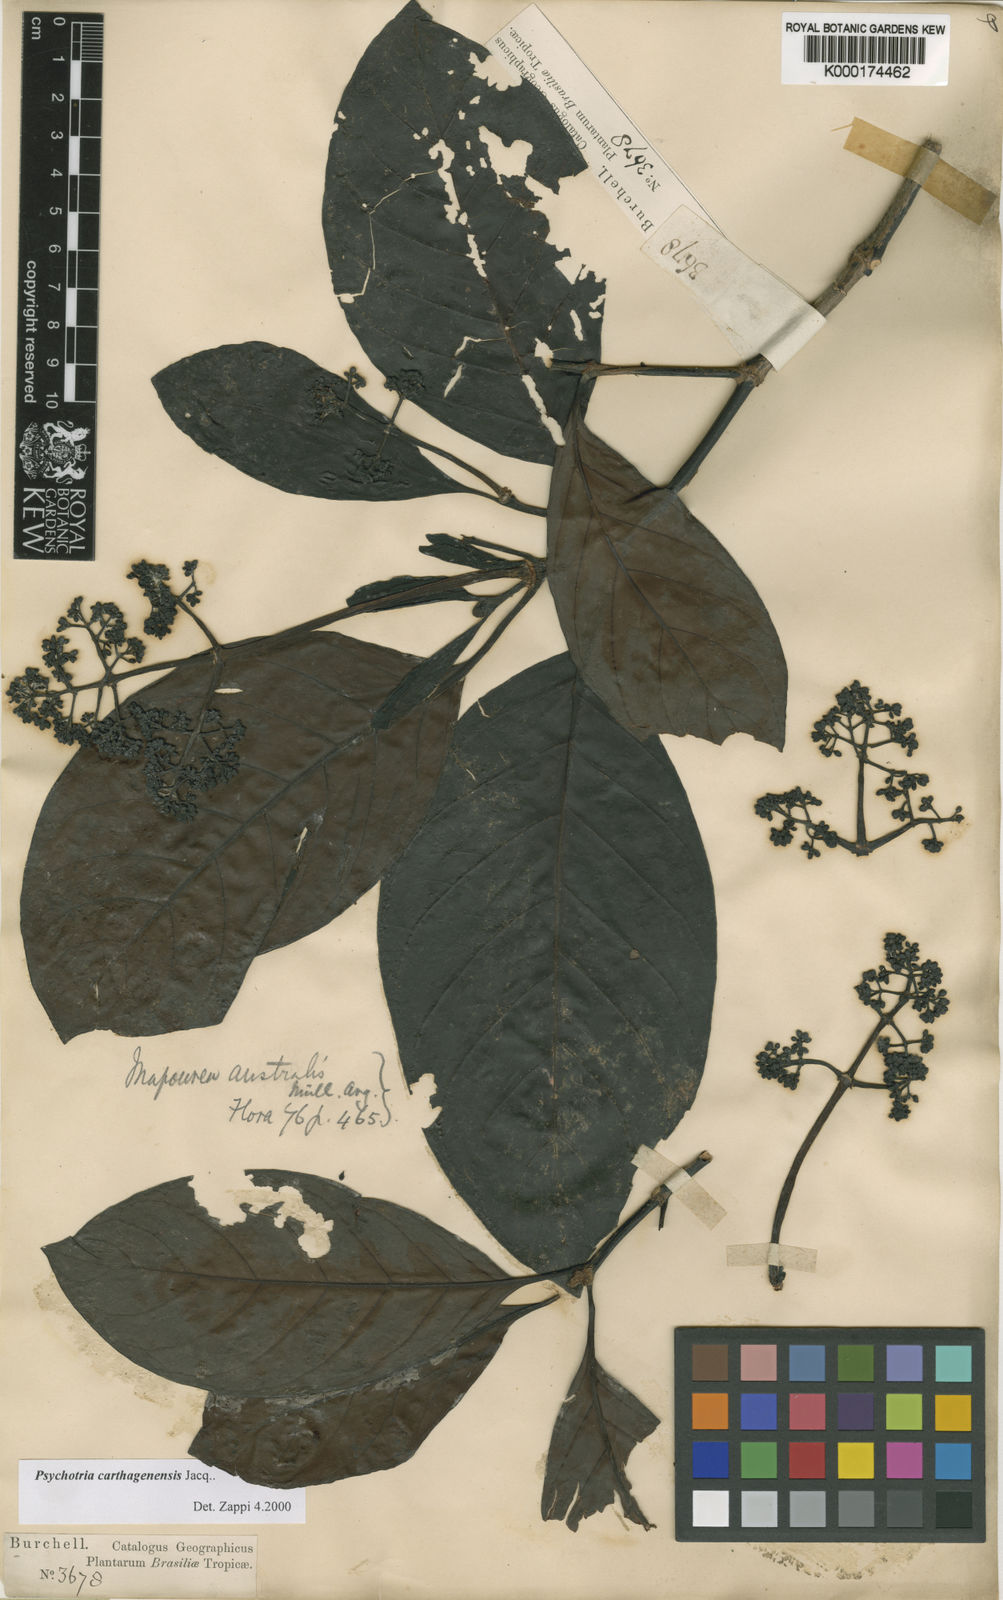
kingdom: Plantae
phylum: Tracheophyta
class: Magnoliopsida
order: Gentianales
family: Rubiaceae
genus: Psychotria
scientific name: Psychotria carthagenensis
